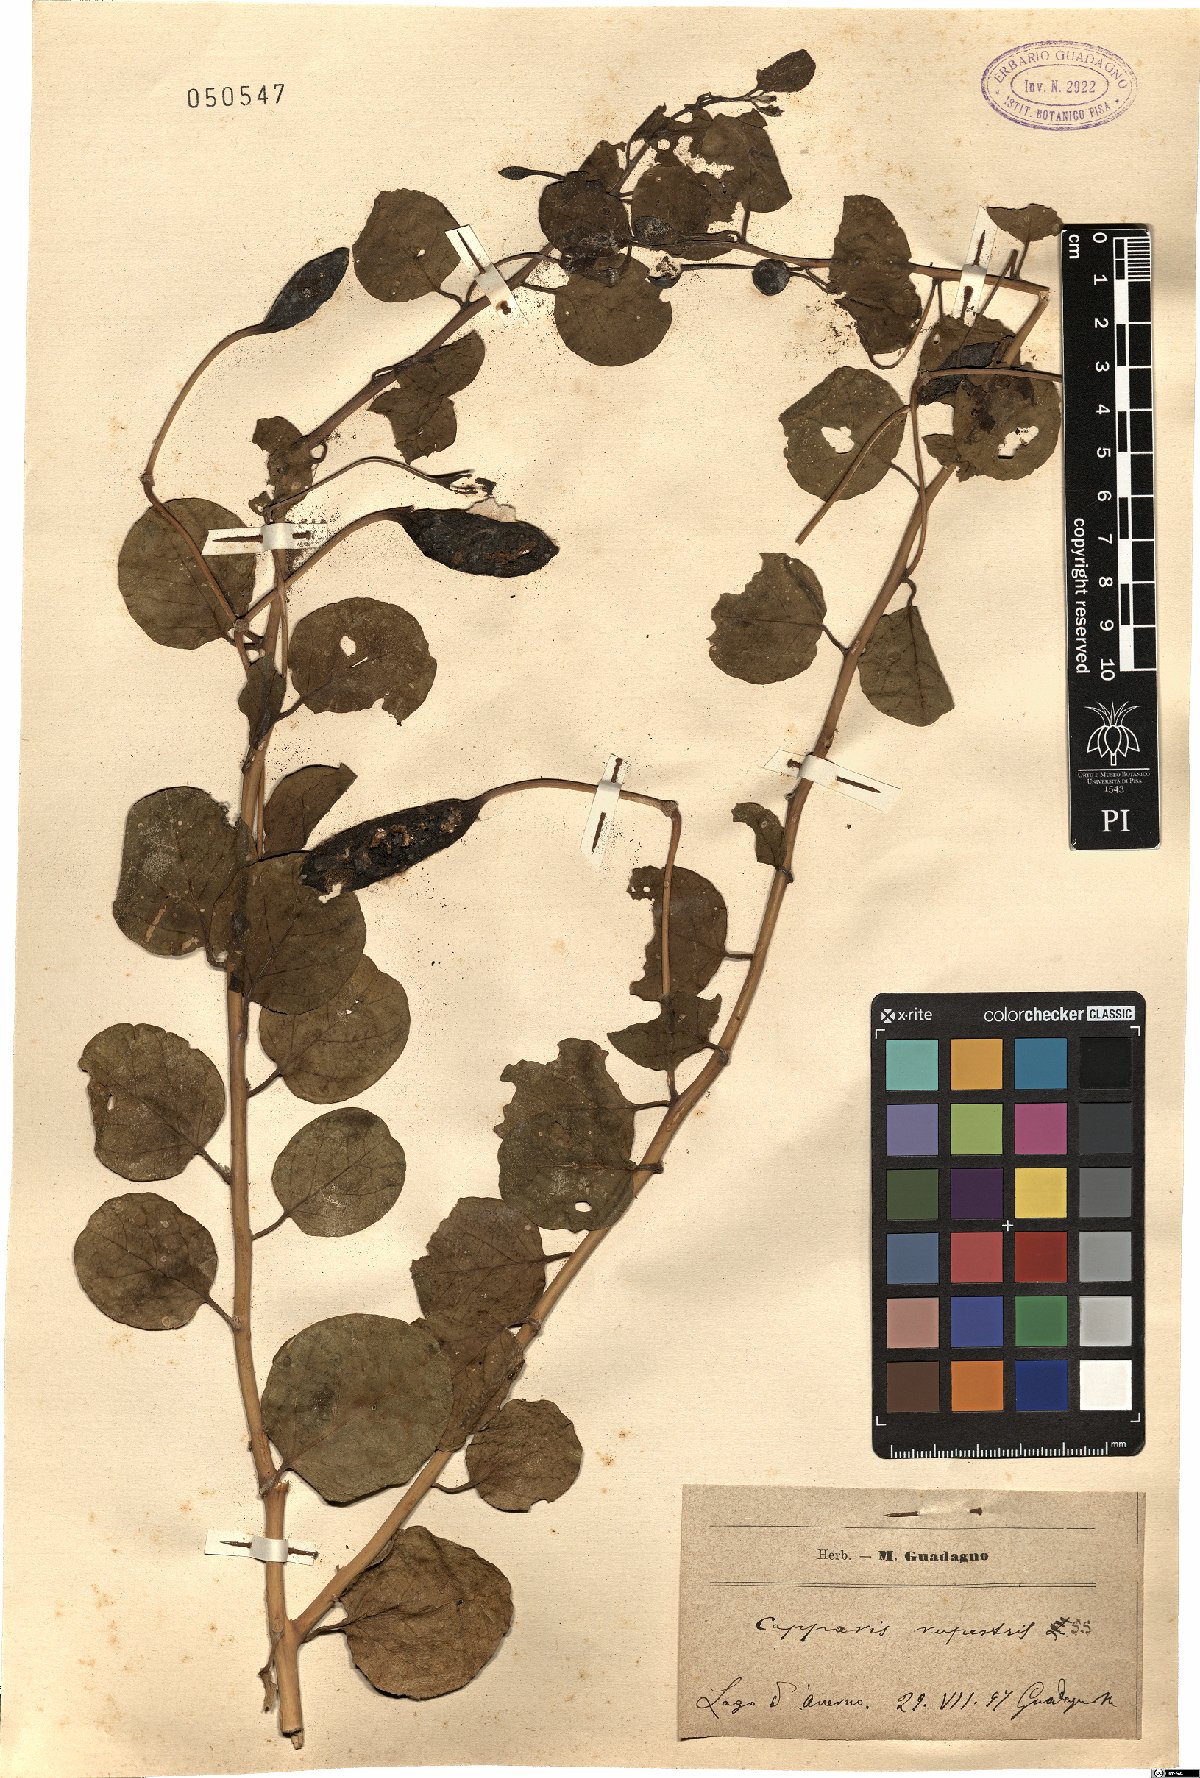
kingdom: Plantae
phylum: Tracheophyta
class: Magnoliopsida
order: Brassicales
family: Capparaceae
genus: Capparis
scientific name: Capparis spinosa
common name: Caper
